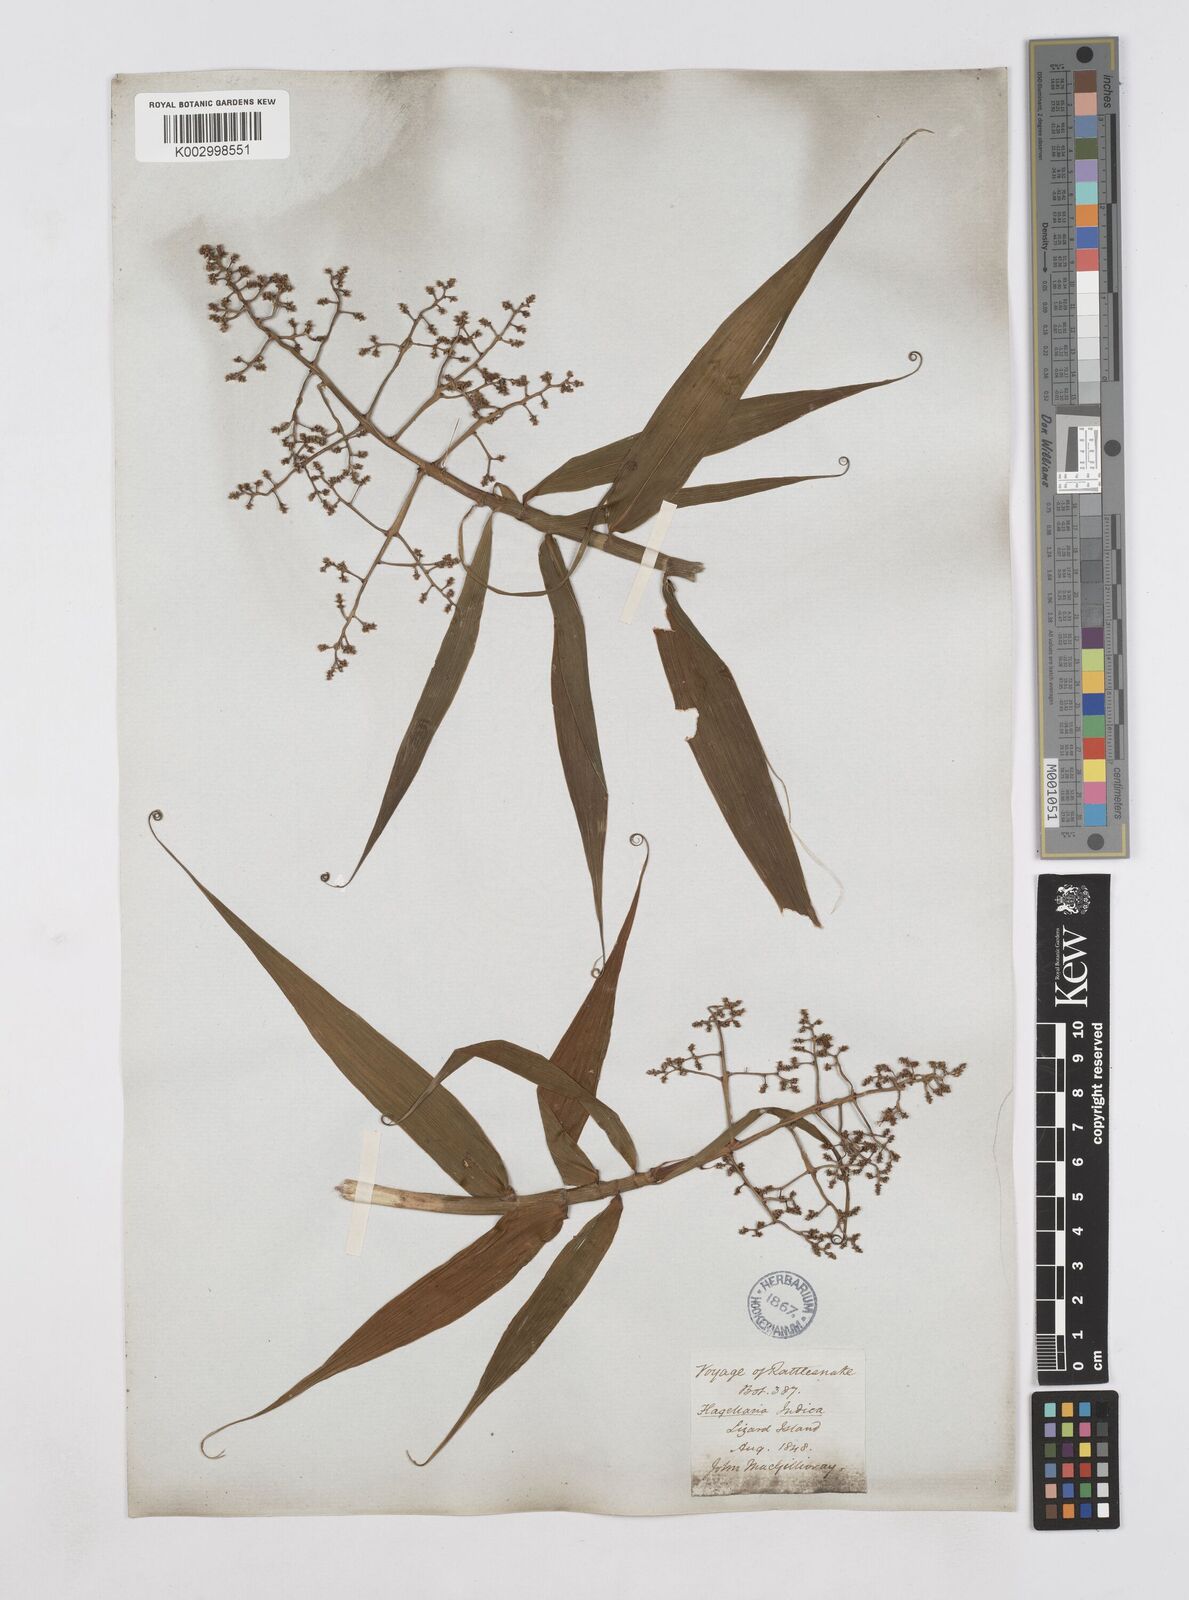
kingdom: Plantae
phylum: Tracheophyta
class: Liliopsida
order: Poales
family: Flagellariaceae
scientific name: Flagellariaceae
